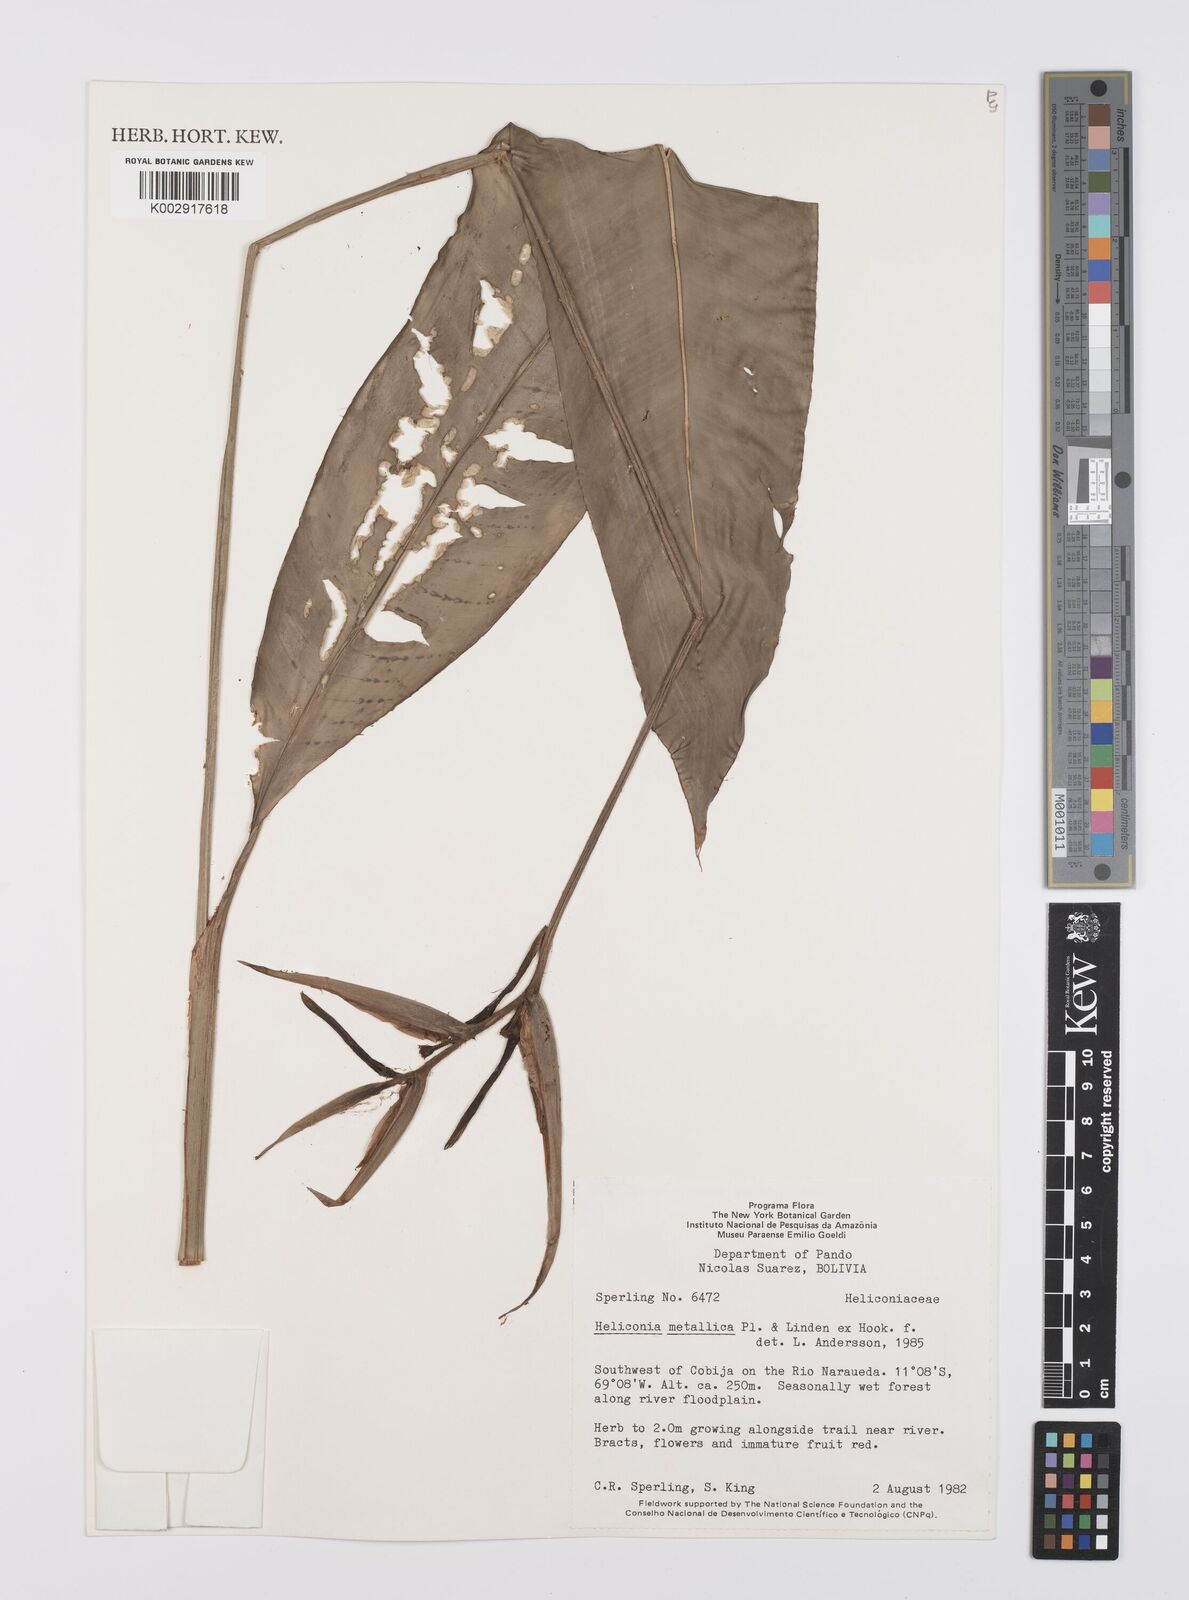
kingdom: Plantae
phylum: Tracheophyta
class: Liliopsida
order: Zingiberales
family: Heliconiaceae
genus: Heliconia
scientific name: Heliconia metallica
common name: Shining bird of paradise
